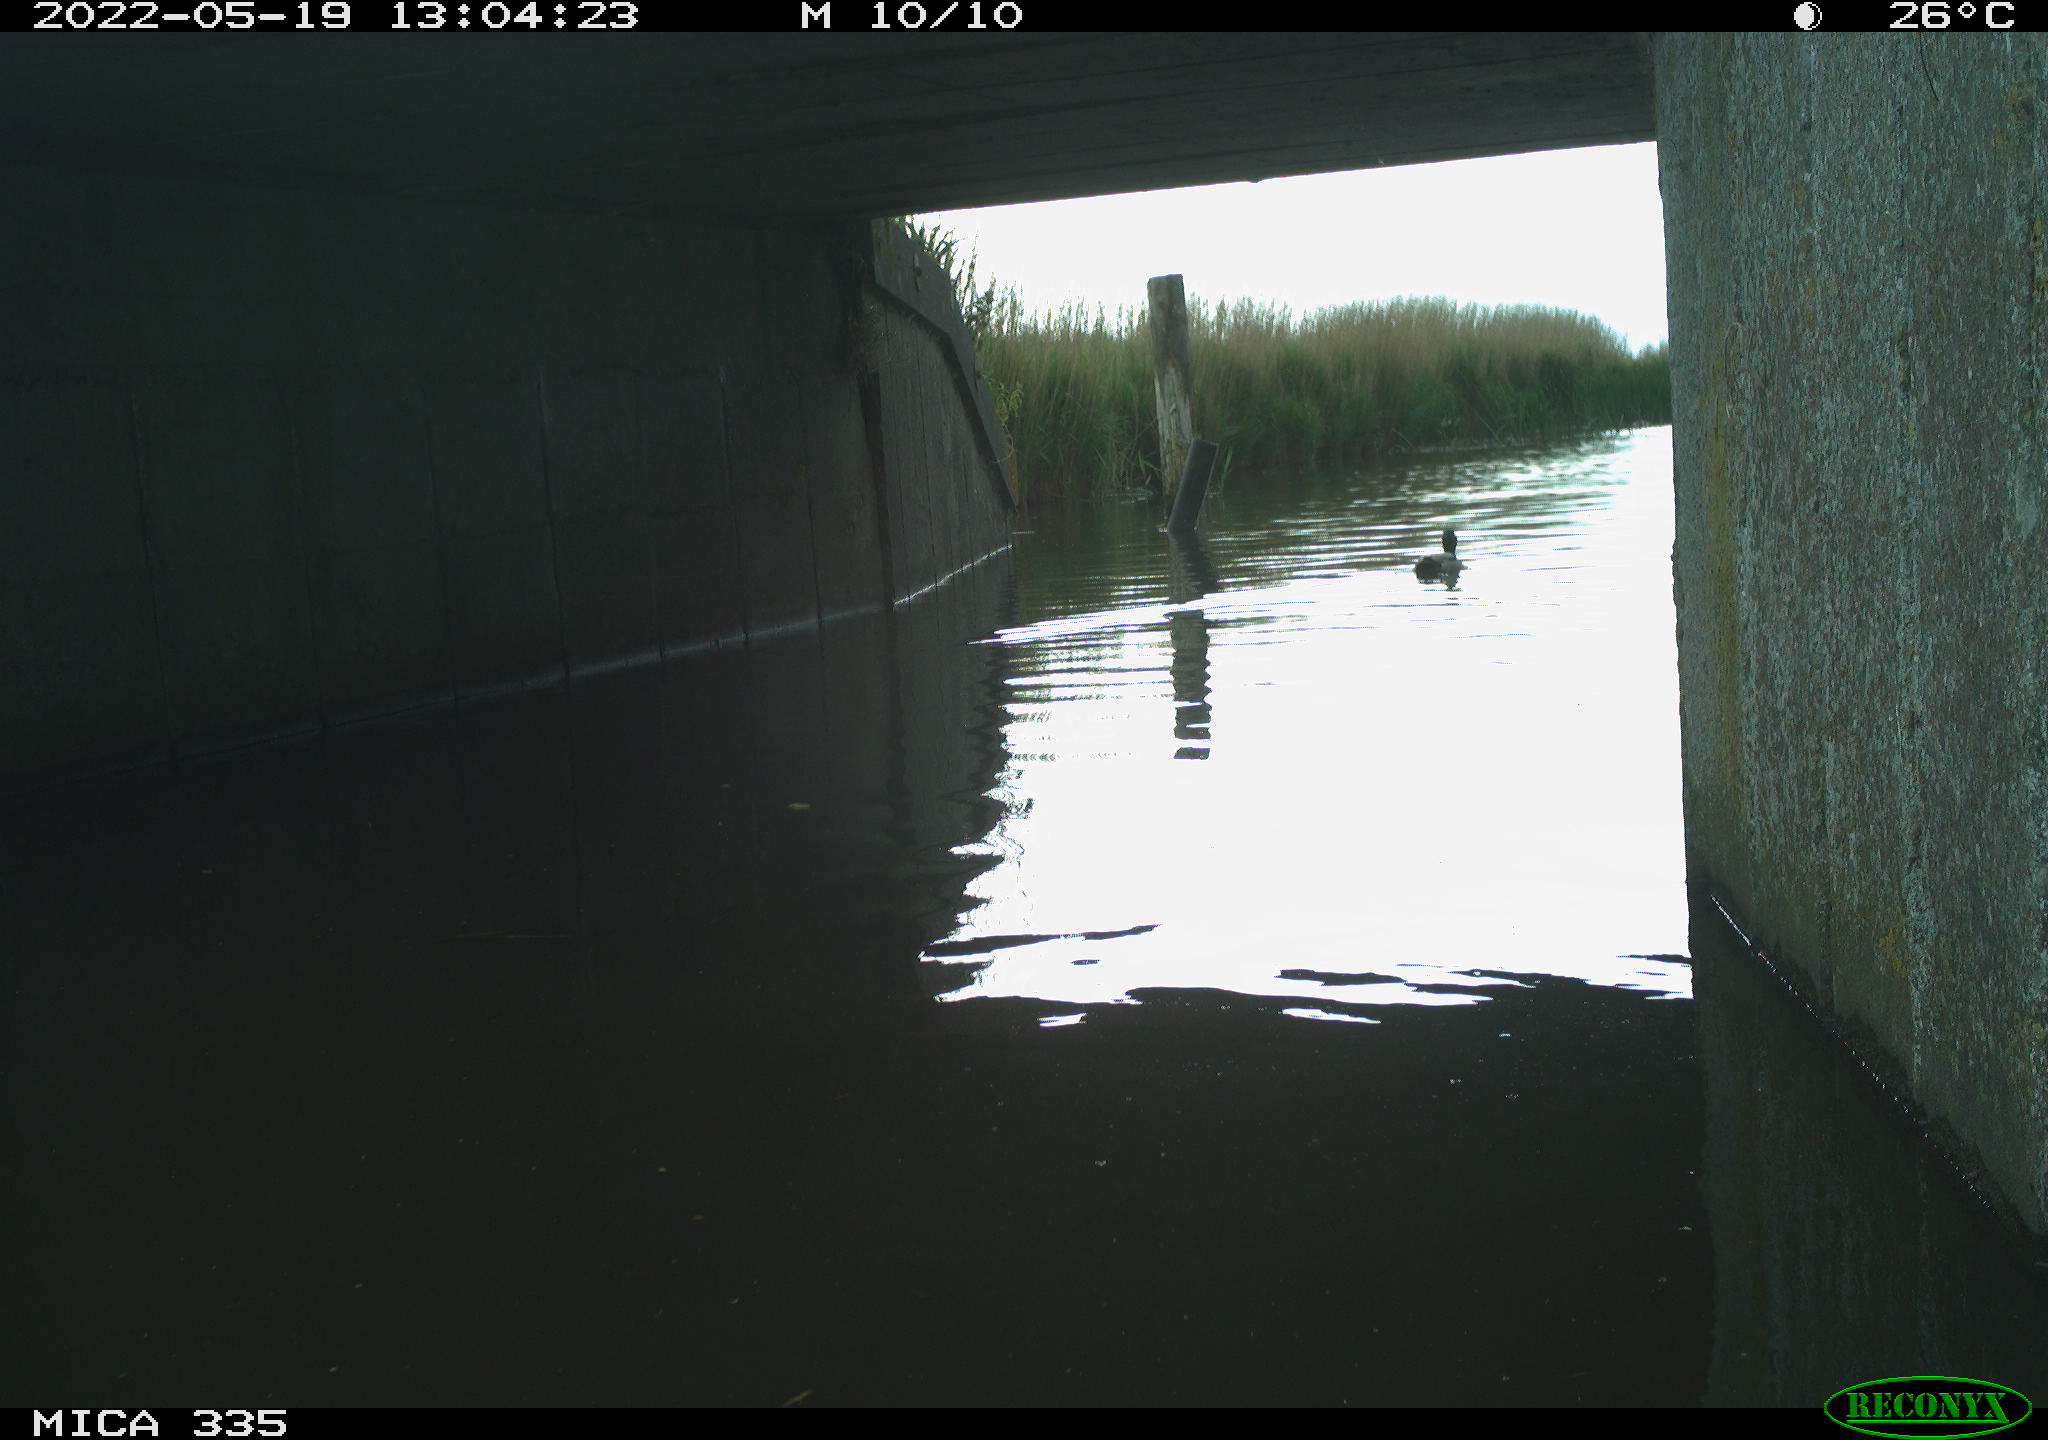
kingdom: Animalia
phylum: Chordata
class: Aves
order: Anseriformes
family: Anatidae
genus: Anas
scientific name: Anas platyrhynchos
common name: Mallard
